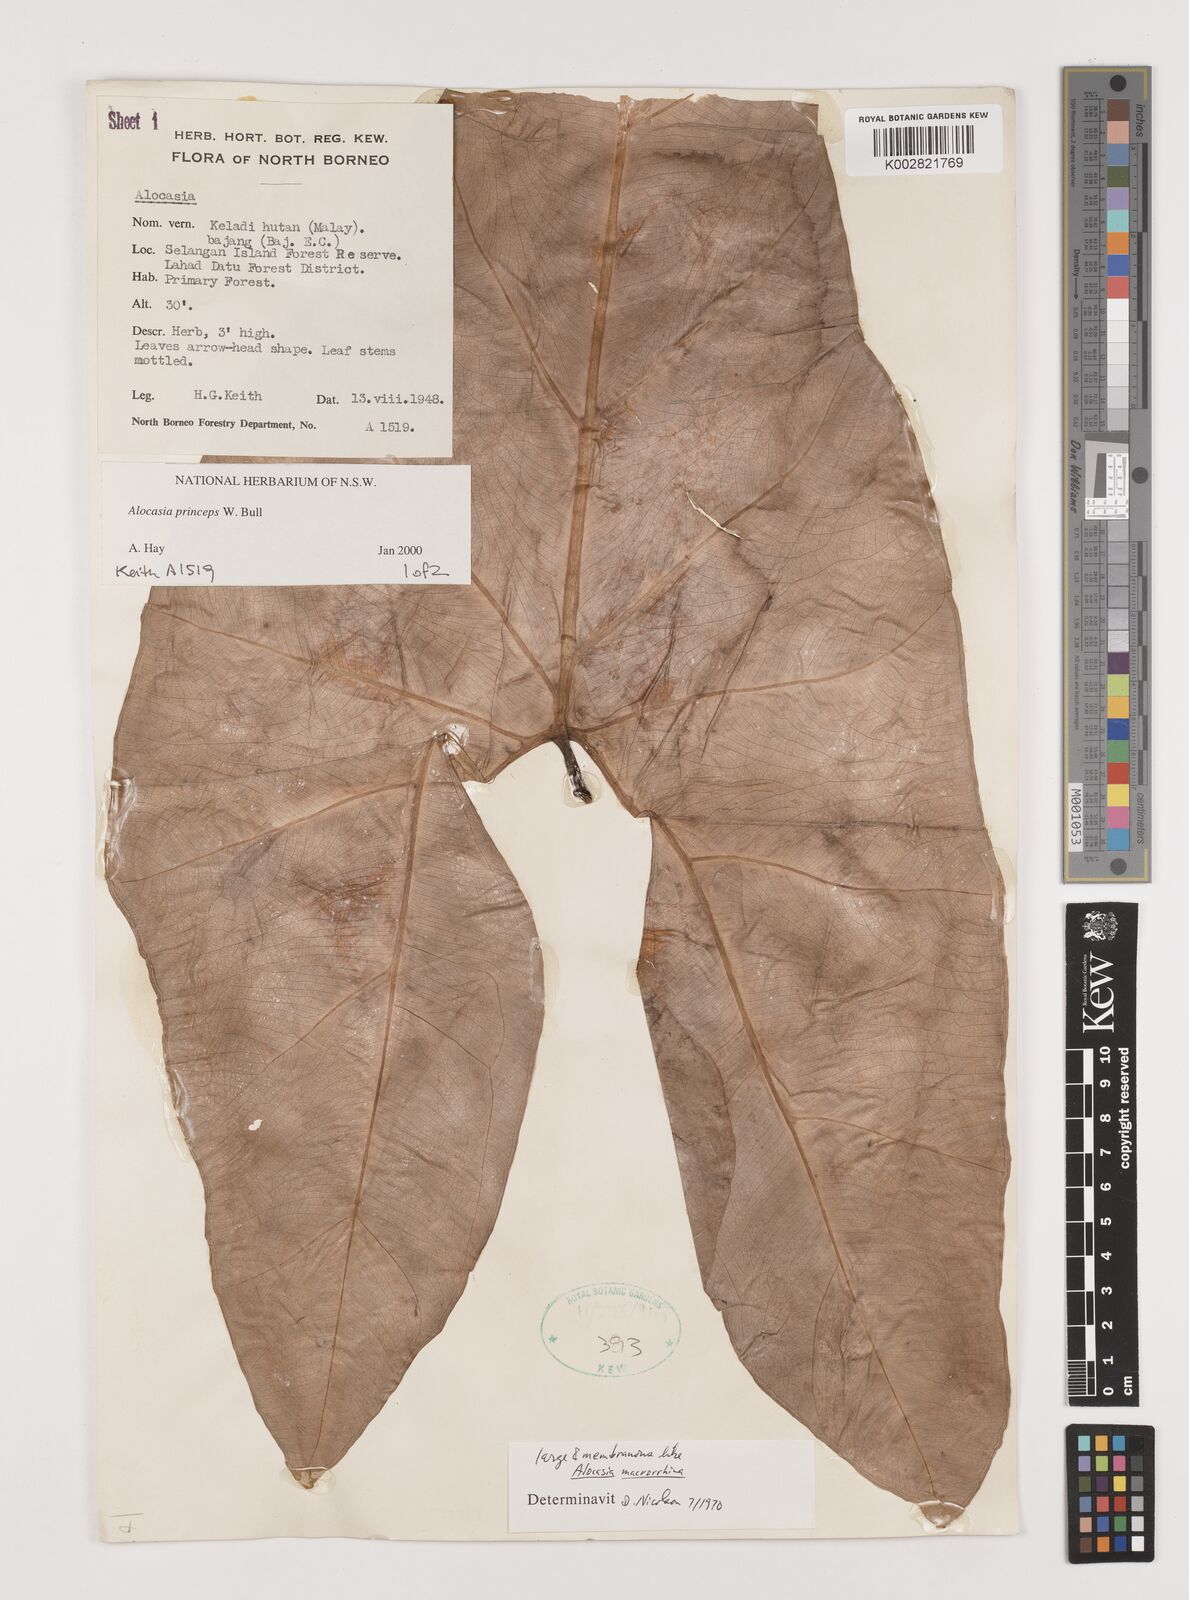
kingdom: Plantae
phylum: Tracheophyta
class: Liliopsida
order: Alismatales
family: Araceae
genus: Alocasia
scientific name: Alocasia princeps
